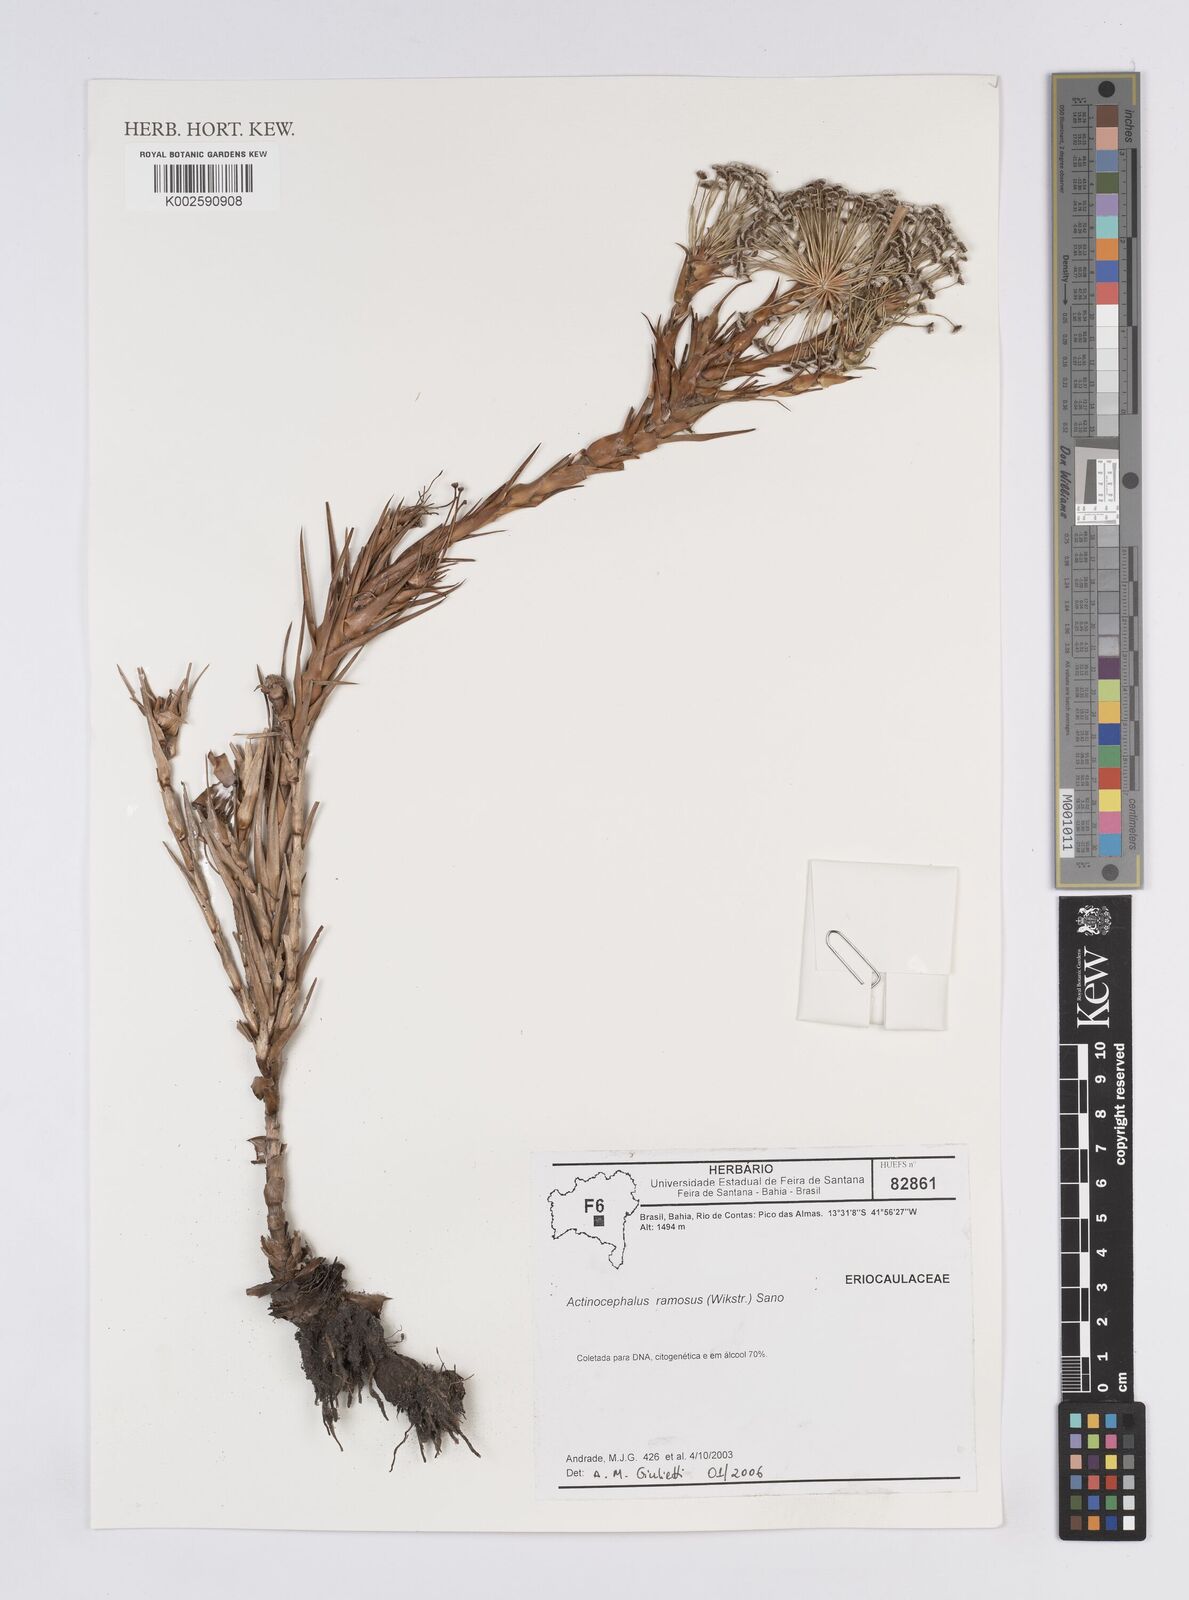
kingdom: Plantae
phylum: Tracheophyta
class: Liliopsida
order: Poales
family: Eriocaulaceae
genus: Paepalanthus
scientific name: Paepalanthus ramosus
